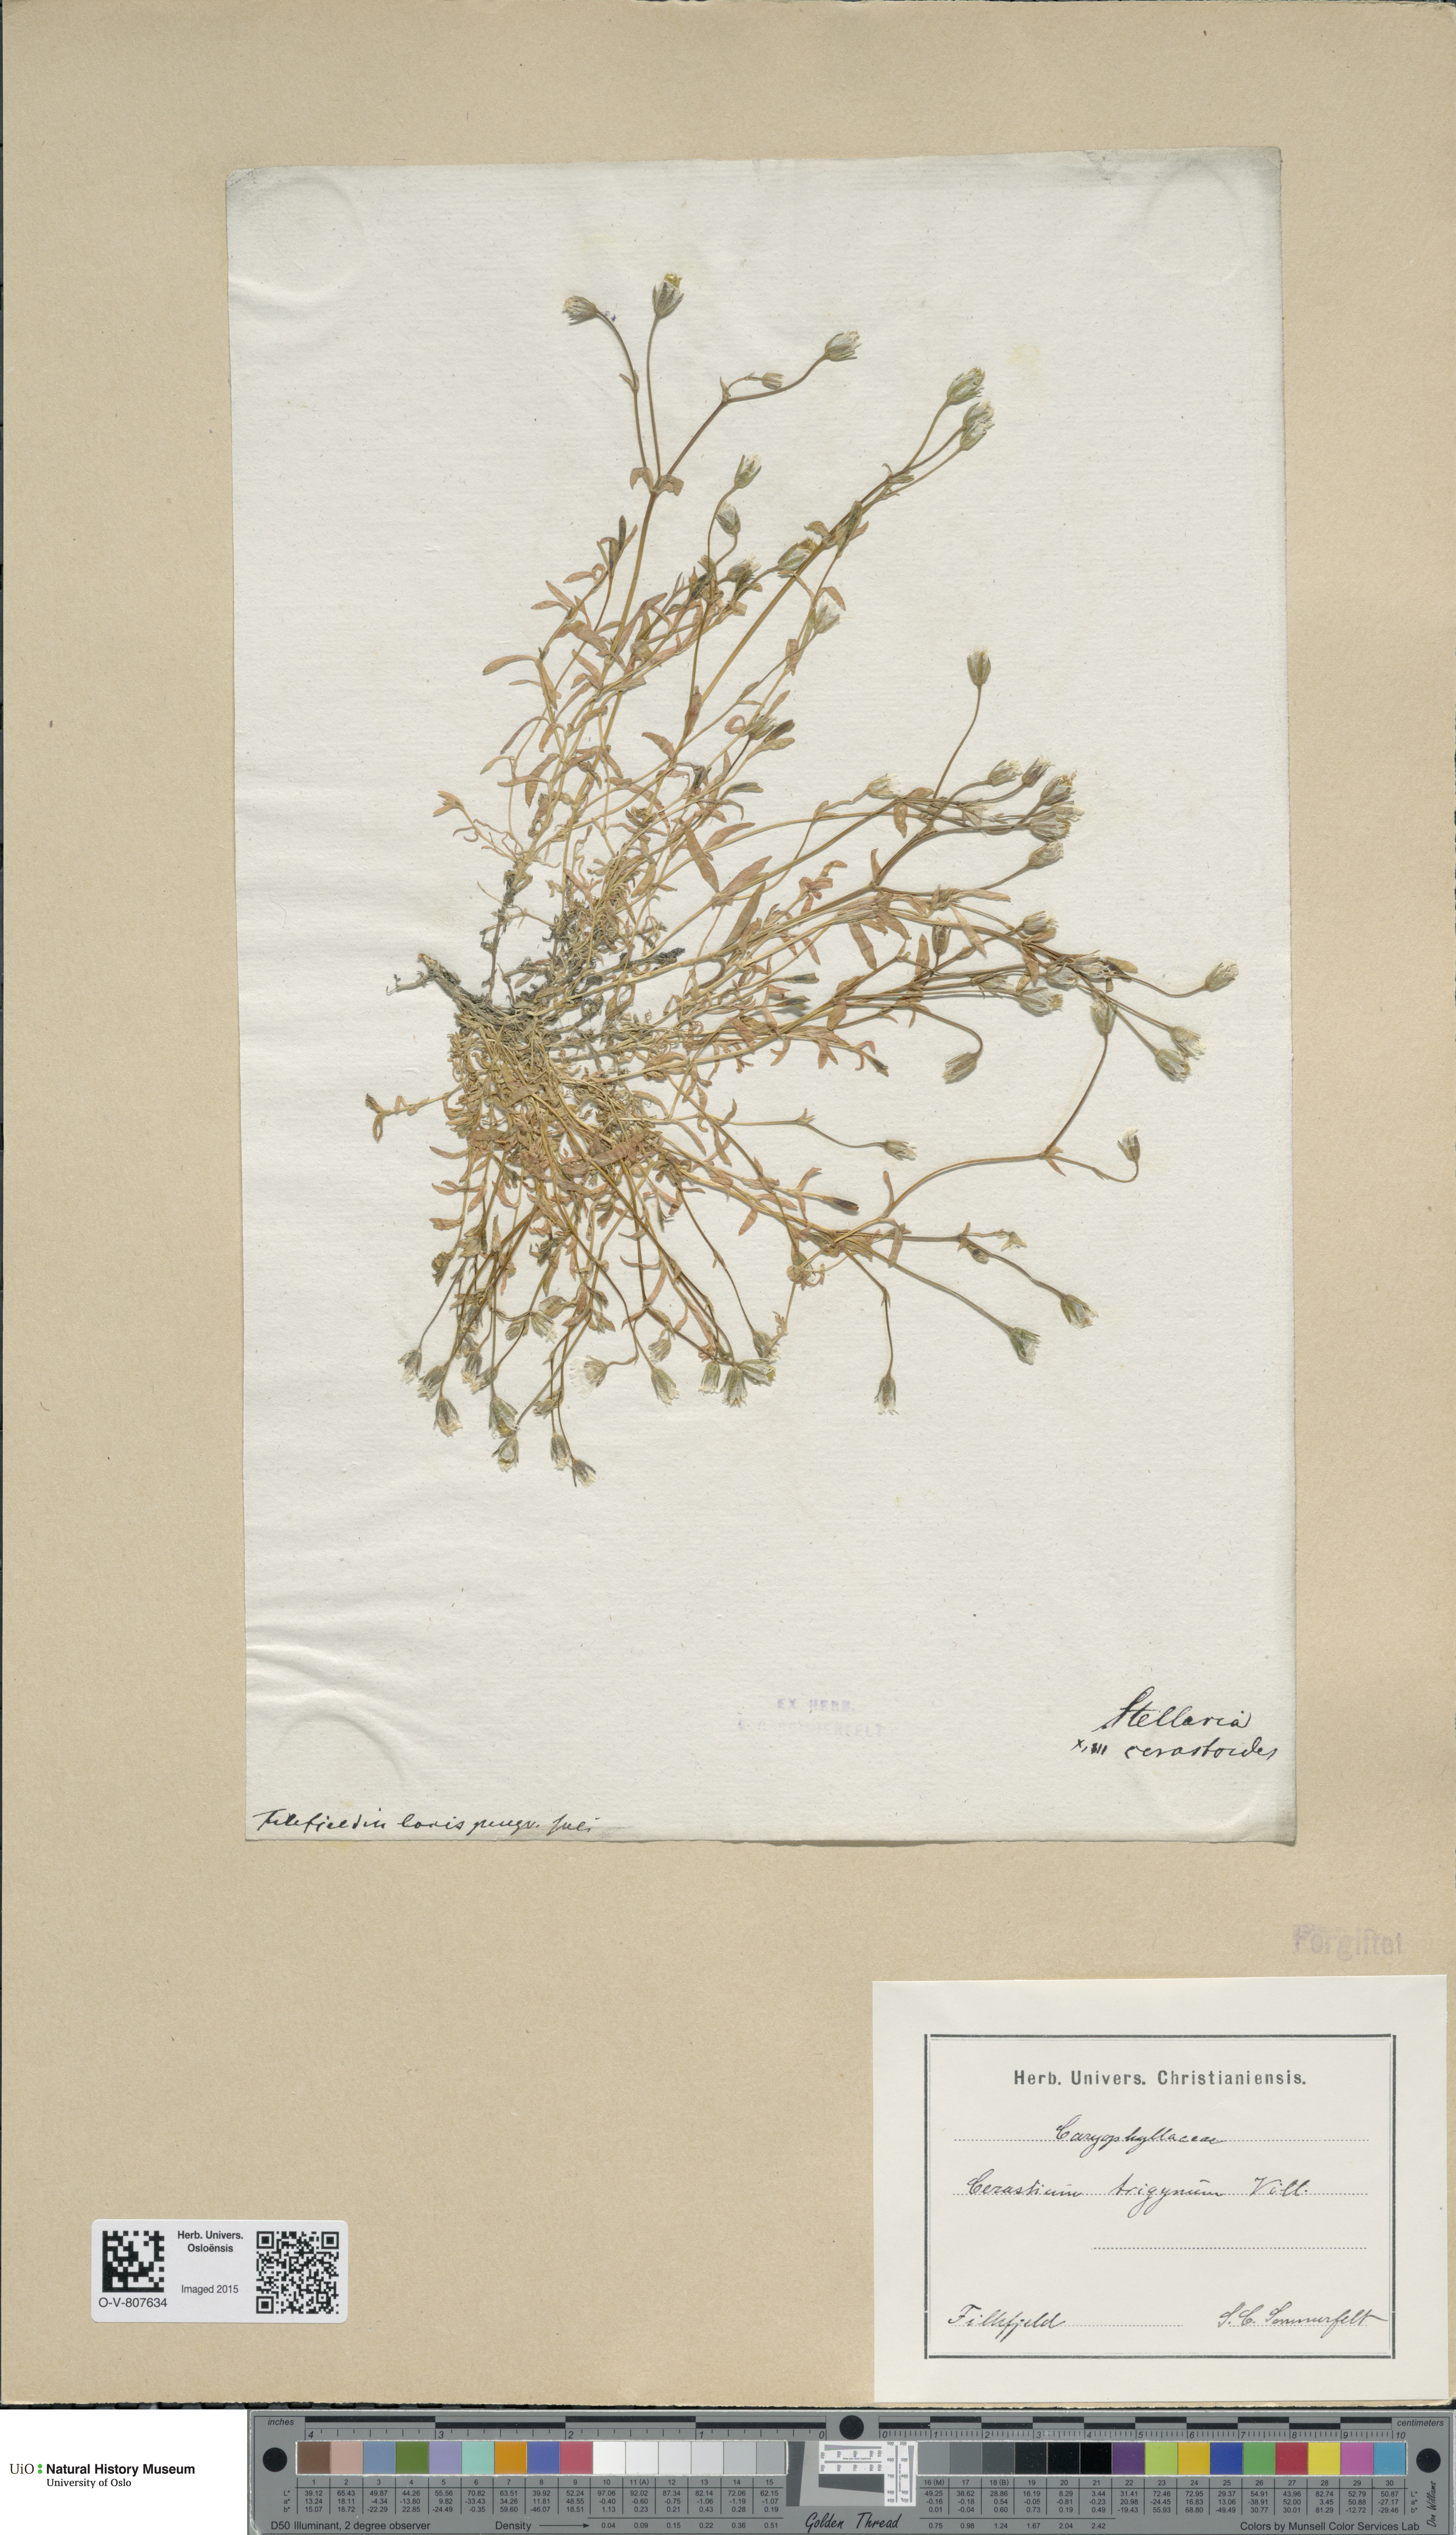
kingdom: Plantae
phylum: Tracheophyta
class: Magnoliopsida
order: Caryophyllales
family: Caryophyllaceae
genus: Dichodon
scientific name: Dichodon cerastoides
